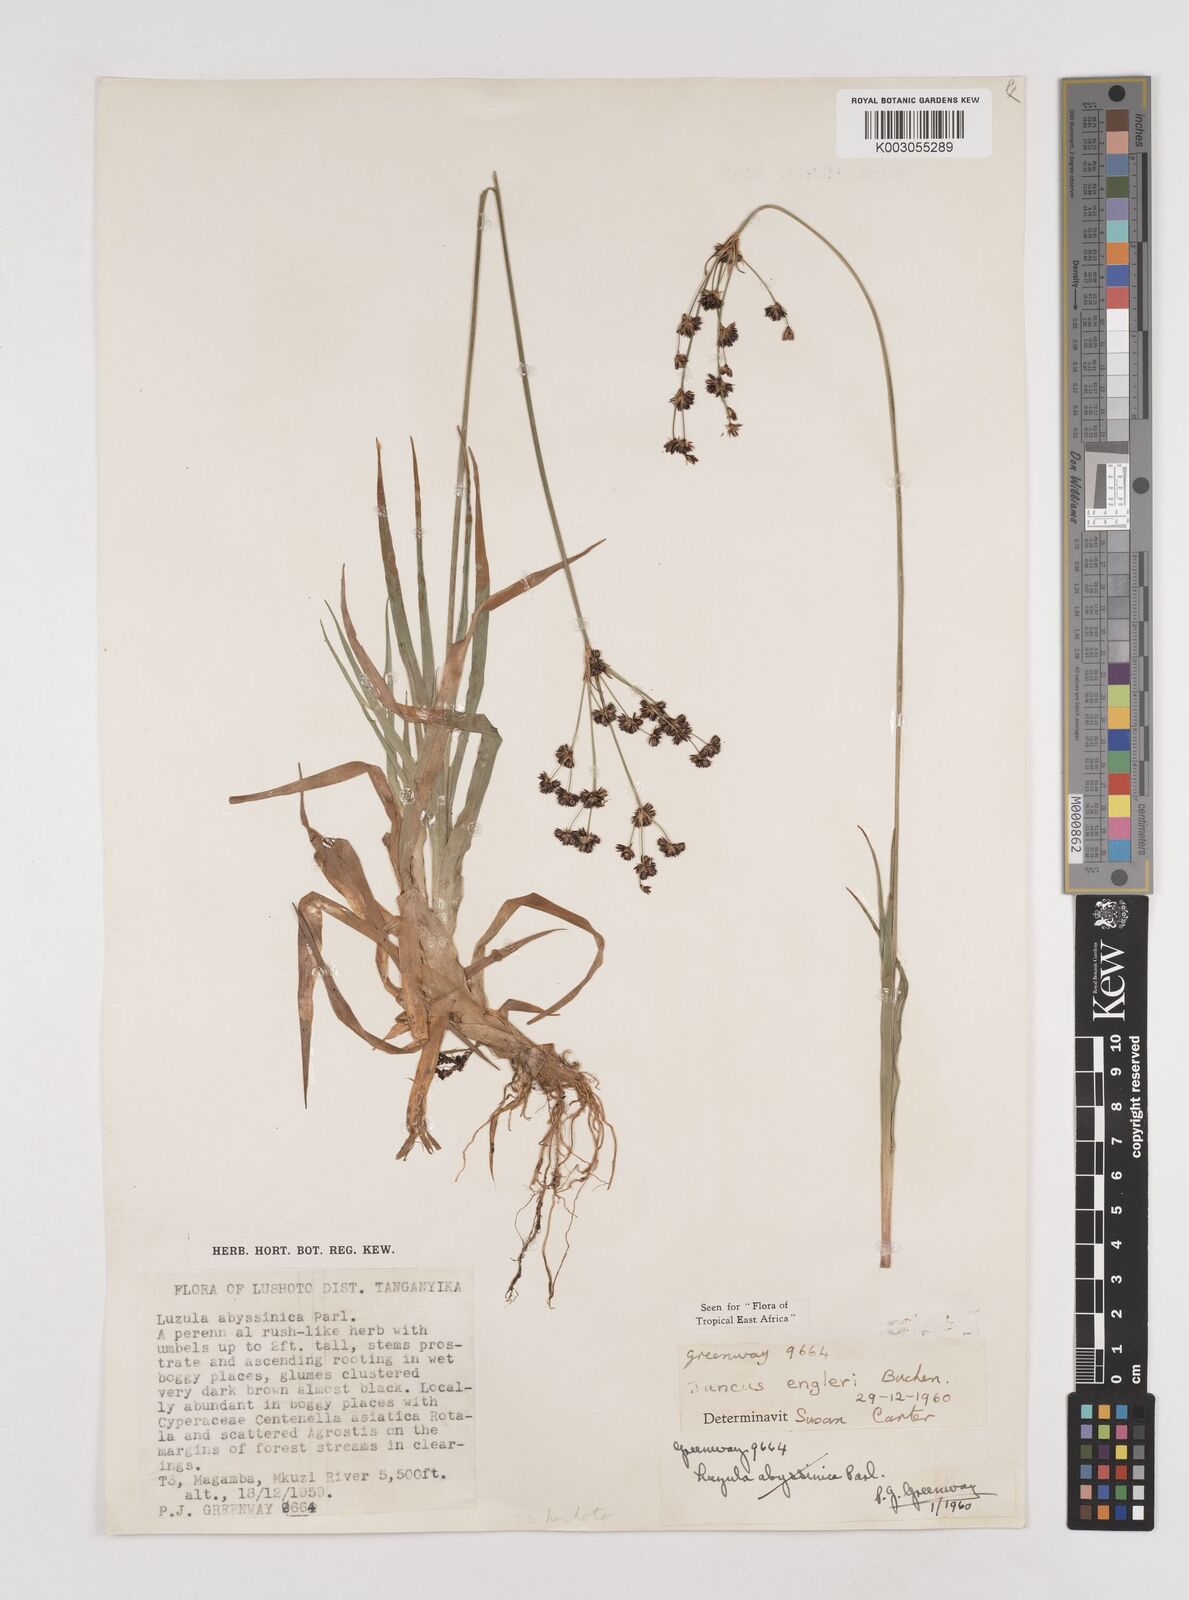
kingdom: Plantae
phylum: Tracheophyta
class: Liliopsida
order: Poales
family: Juncaceae
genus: Juncus
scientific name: Juncus engleri
